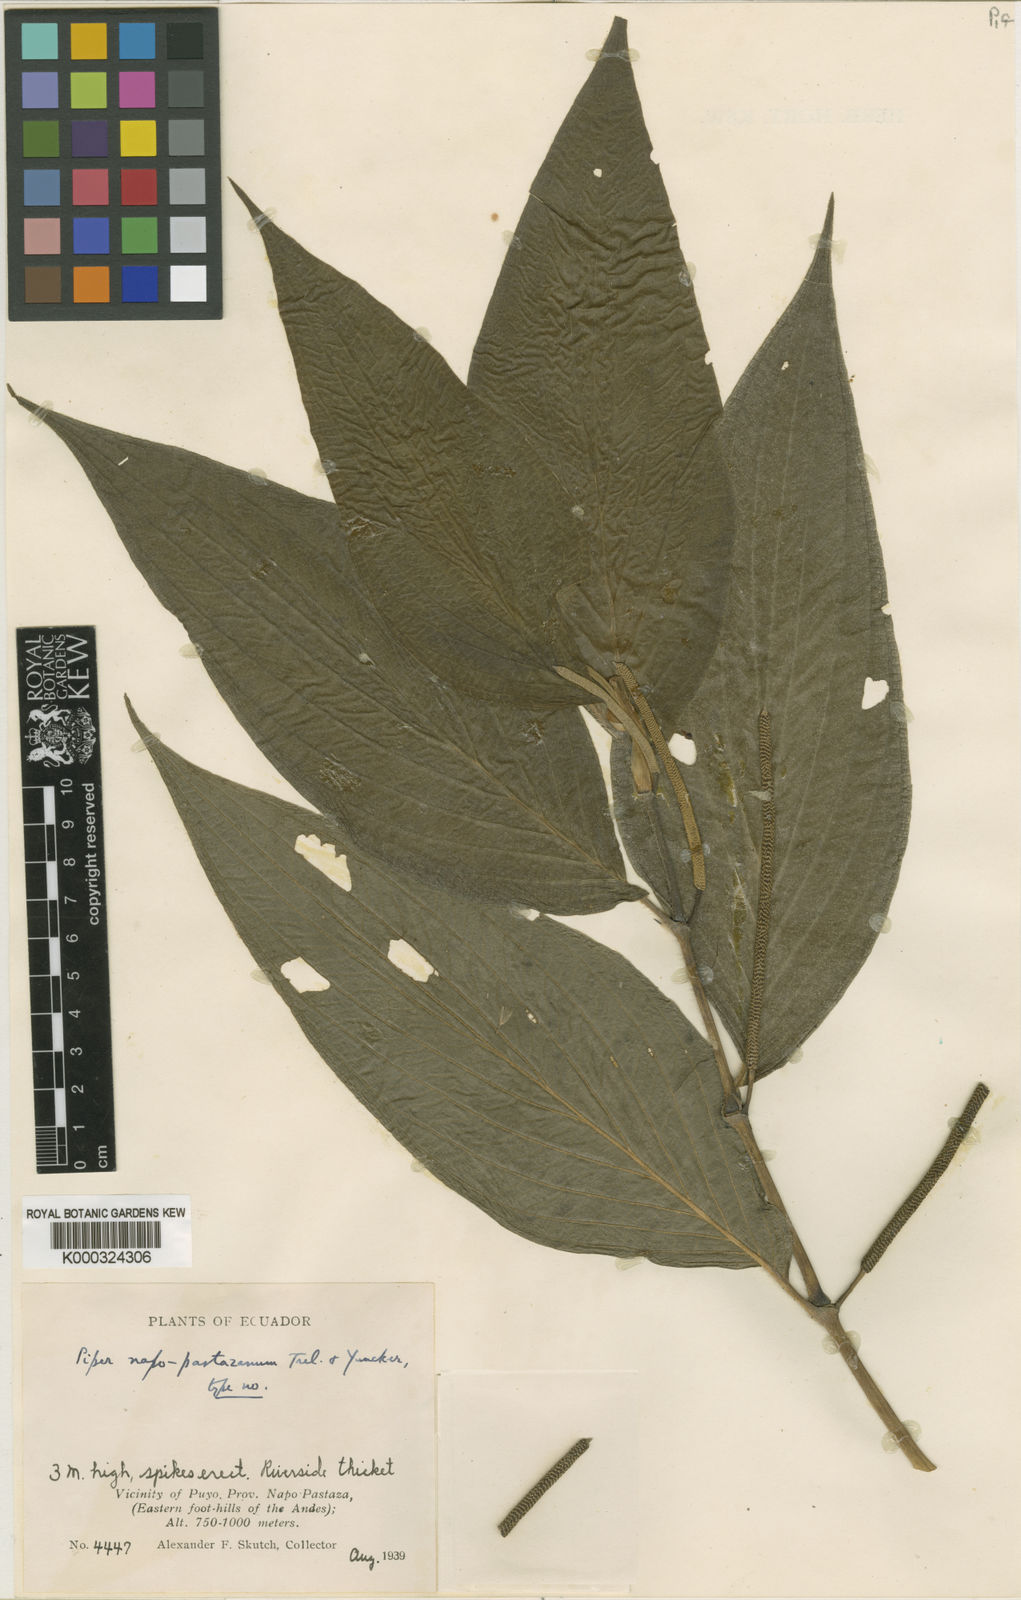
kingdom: Plantae
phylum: Tracheophyta
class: Magnoliopsida
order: Piperales
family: Piperaceae
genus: Piper
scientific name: Piper napo-pastazanum
